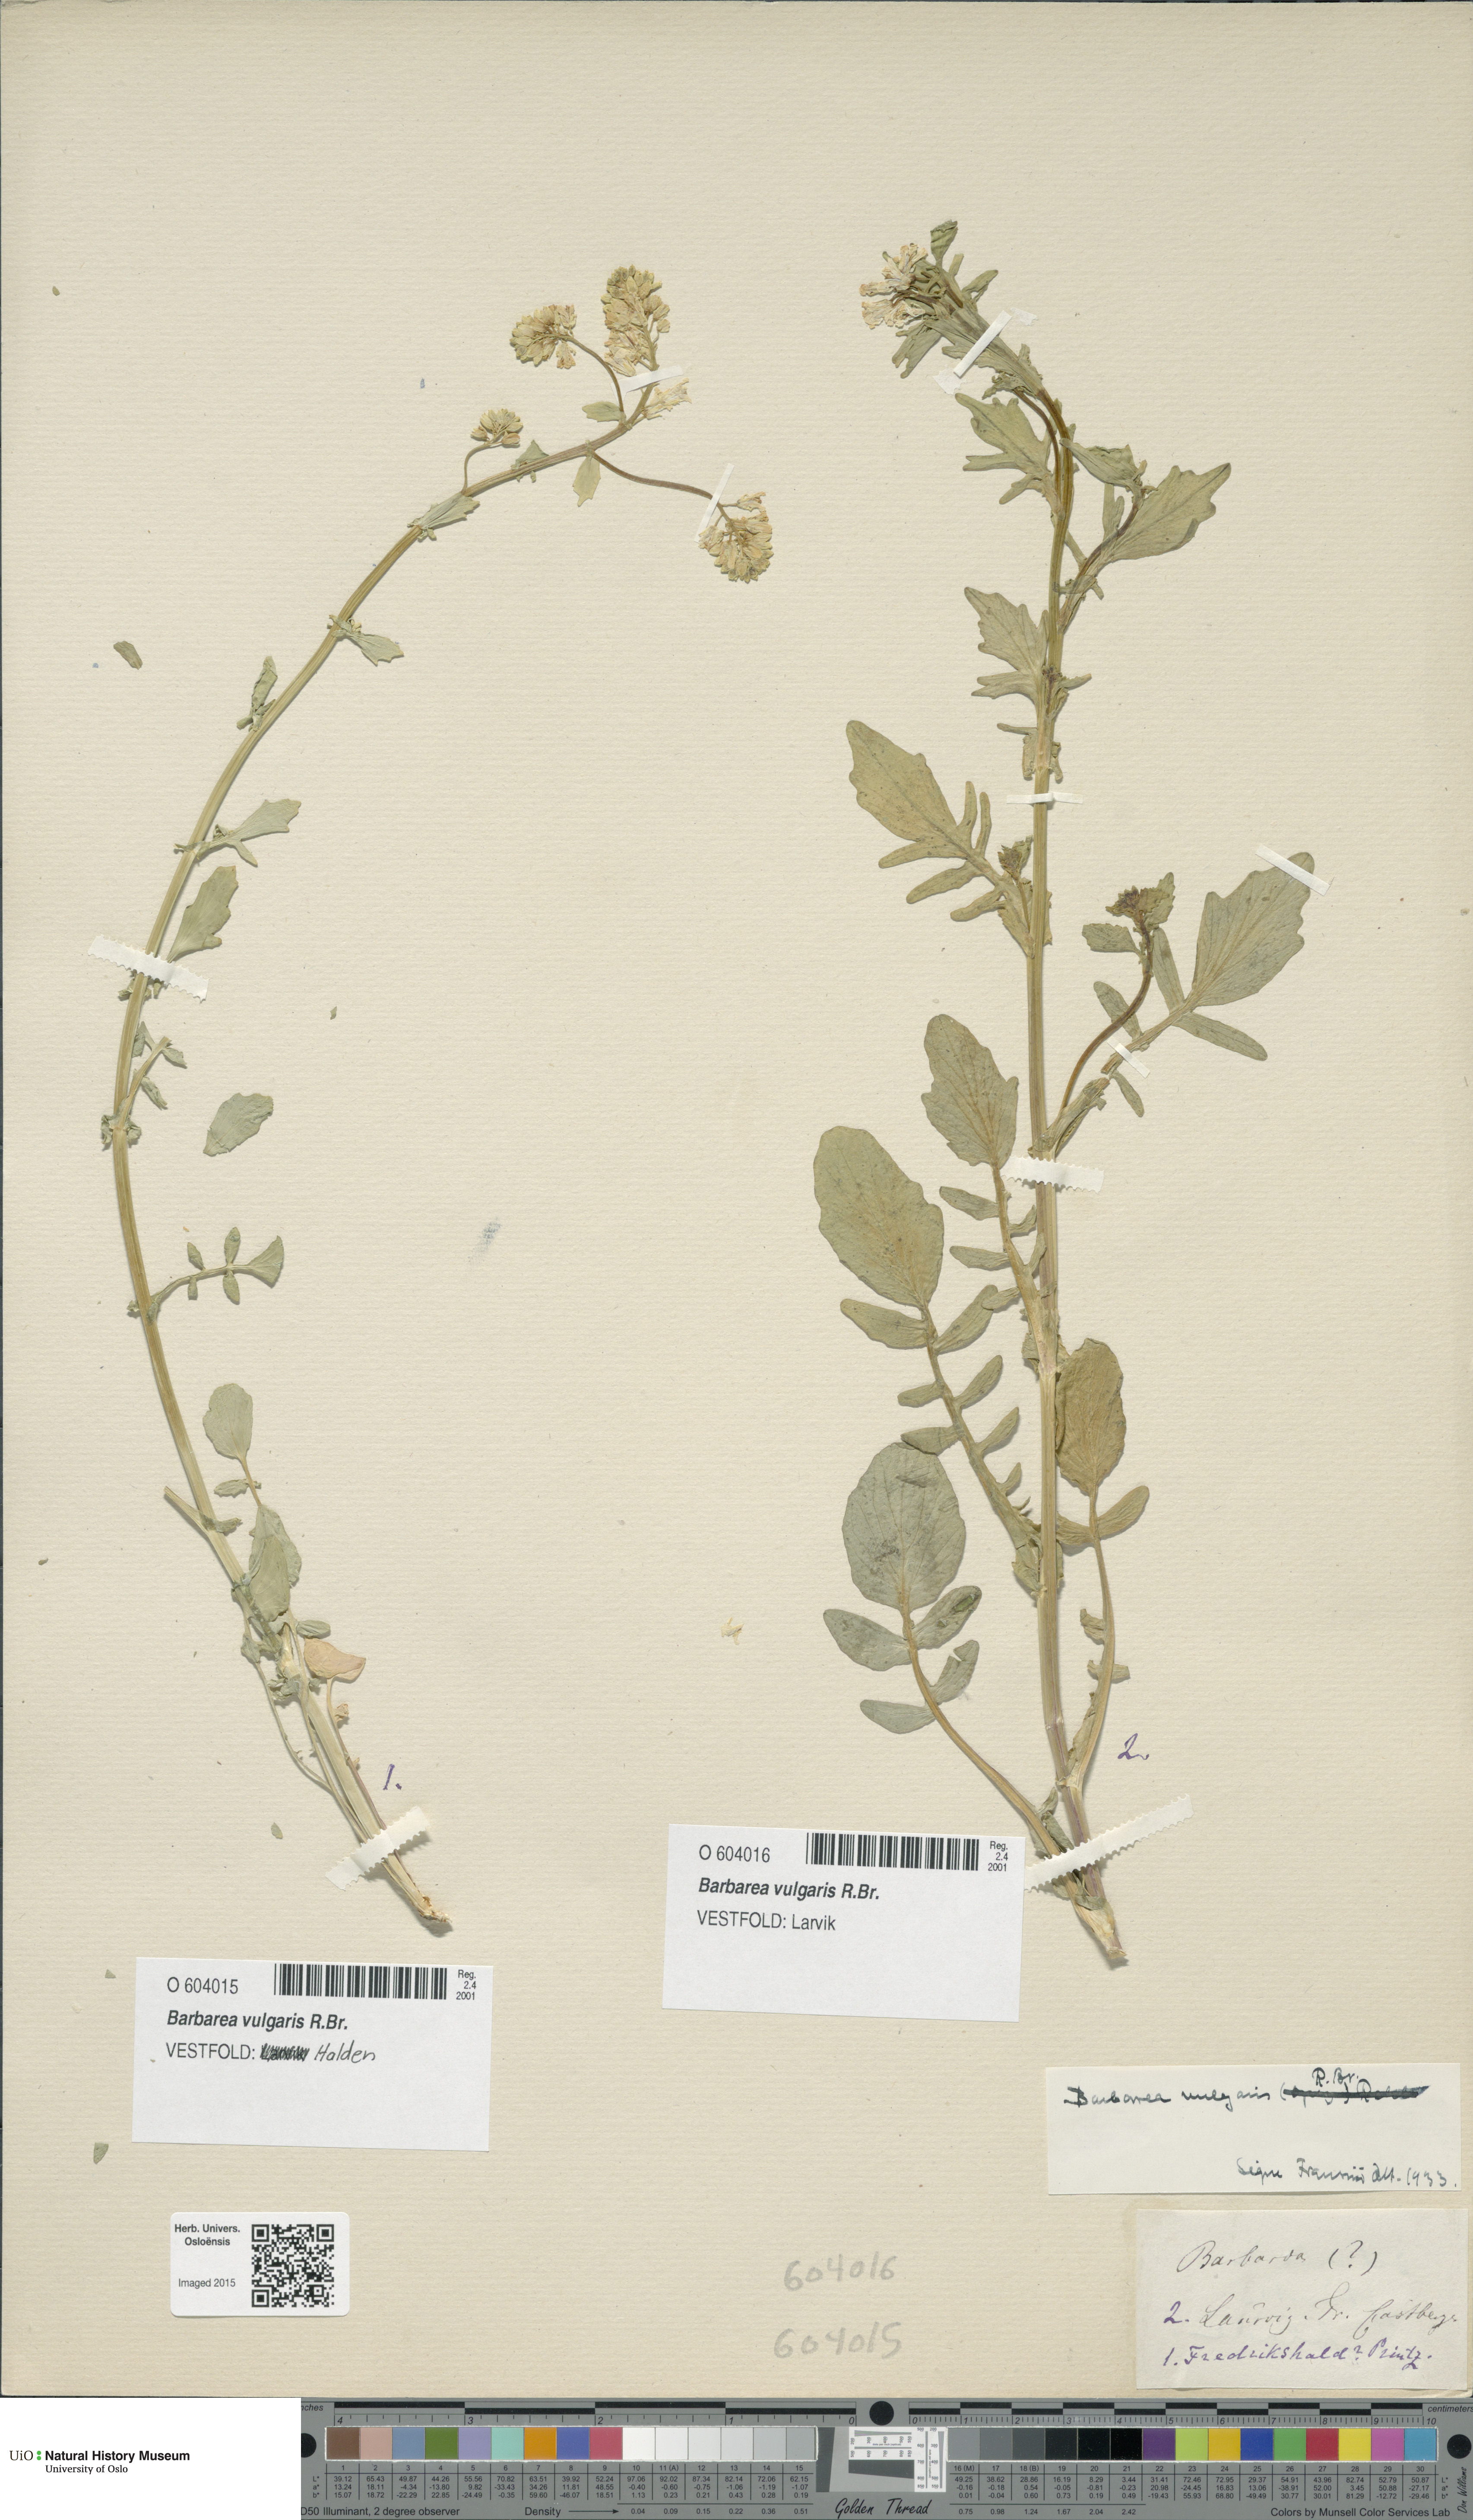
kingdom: Plantae
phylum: Tracheophyta
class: Magnoliopsida
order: Brassicales
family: Brassicaceae
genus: Barbarea
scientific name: Barbarea vulgaris
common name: Cressy-greens
